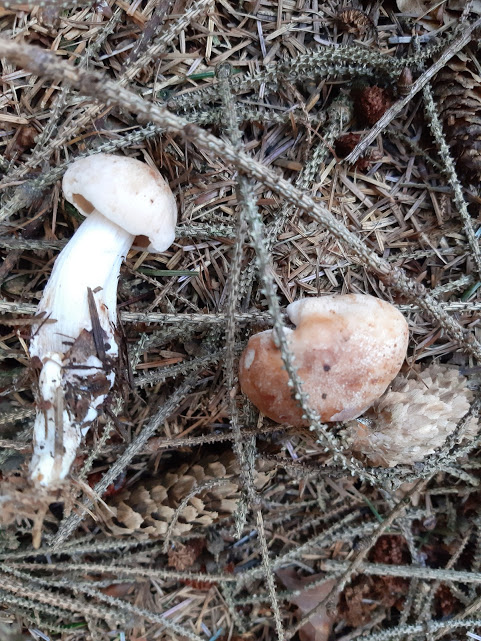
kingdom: Fungi
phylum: Basidiomycota
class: Agaricomycetes
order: Agaricales
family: Omphalotaceae
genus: Rhodocollybia
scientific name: Rhodocollybia maculata
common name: plettet fladhat
